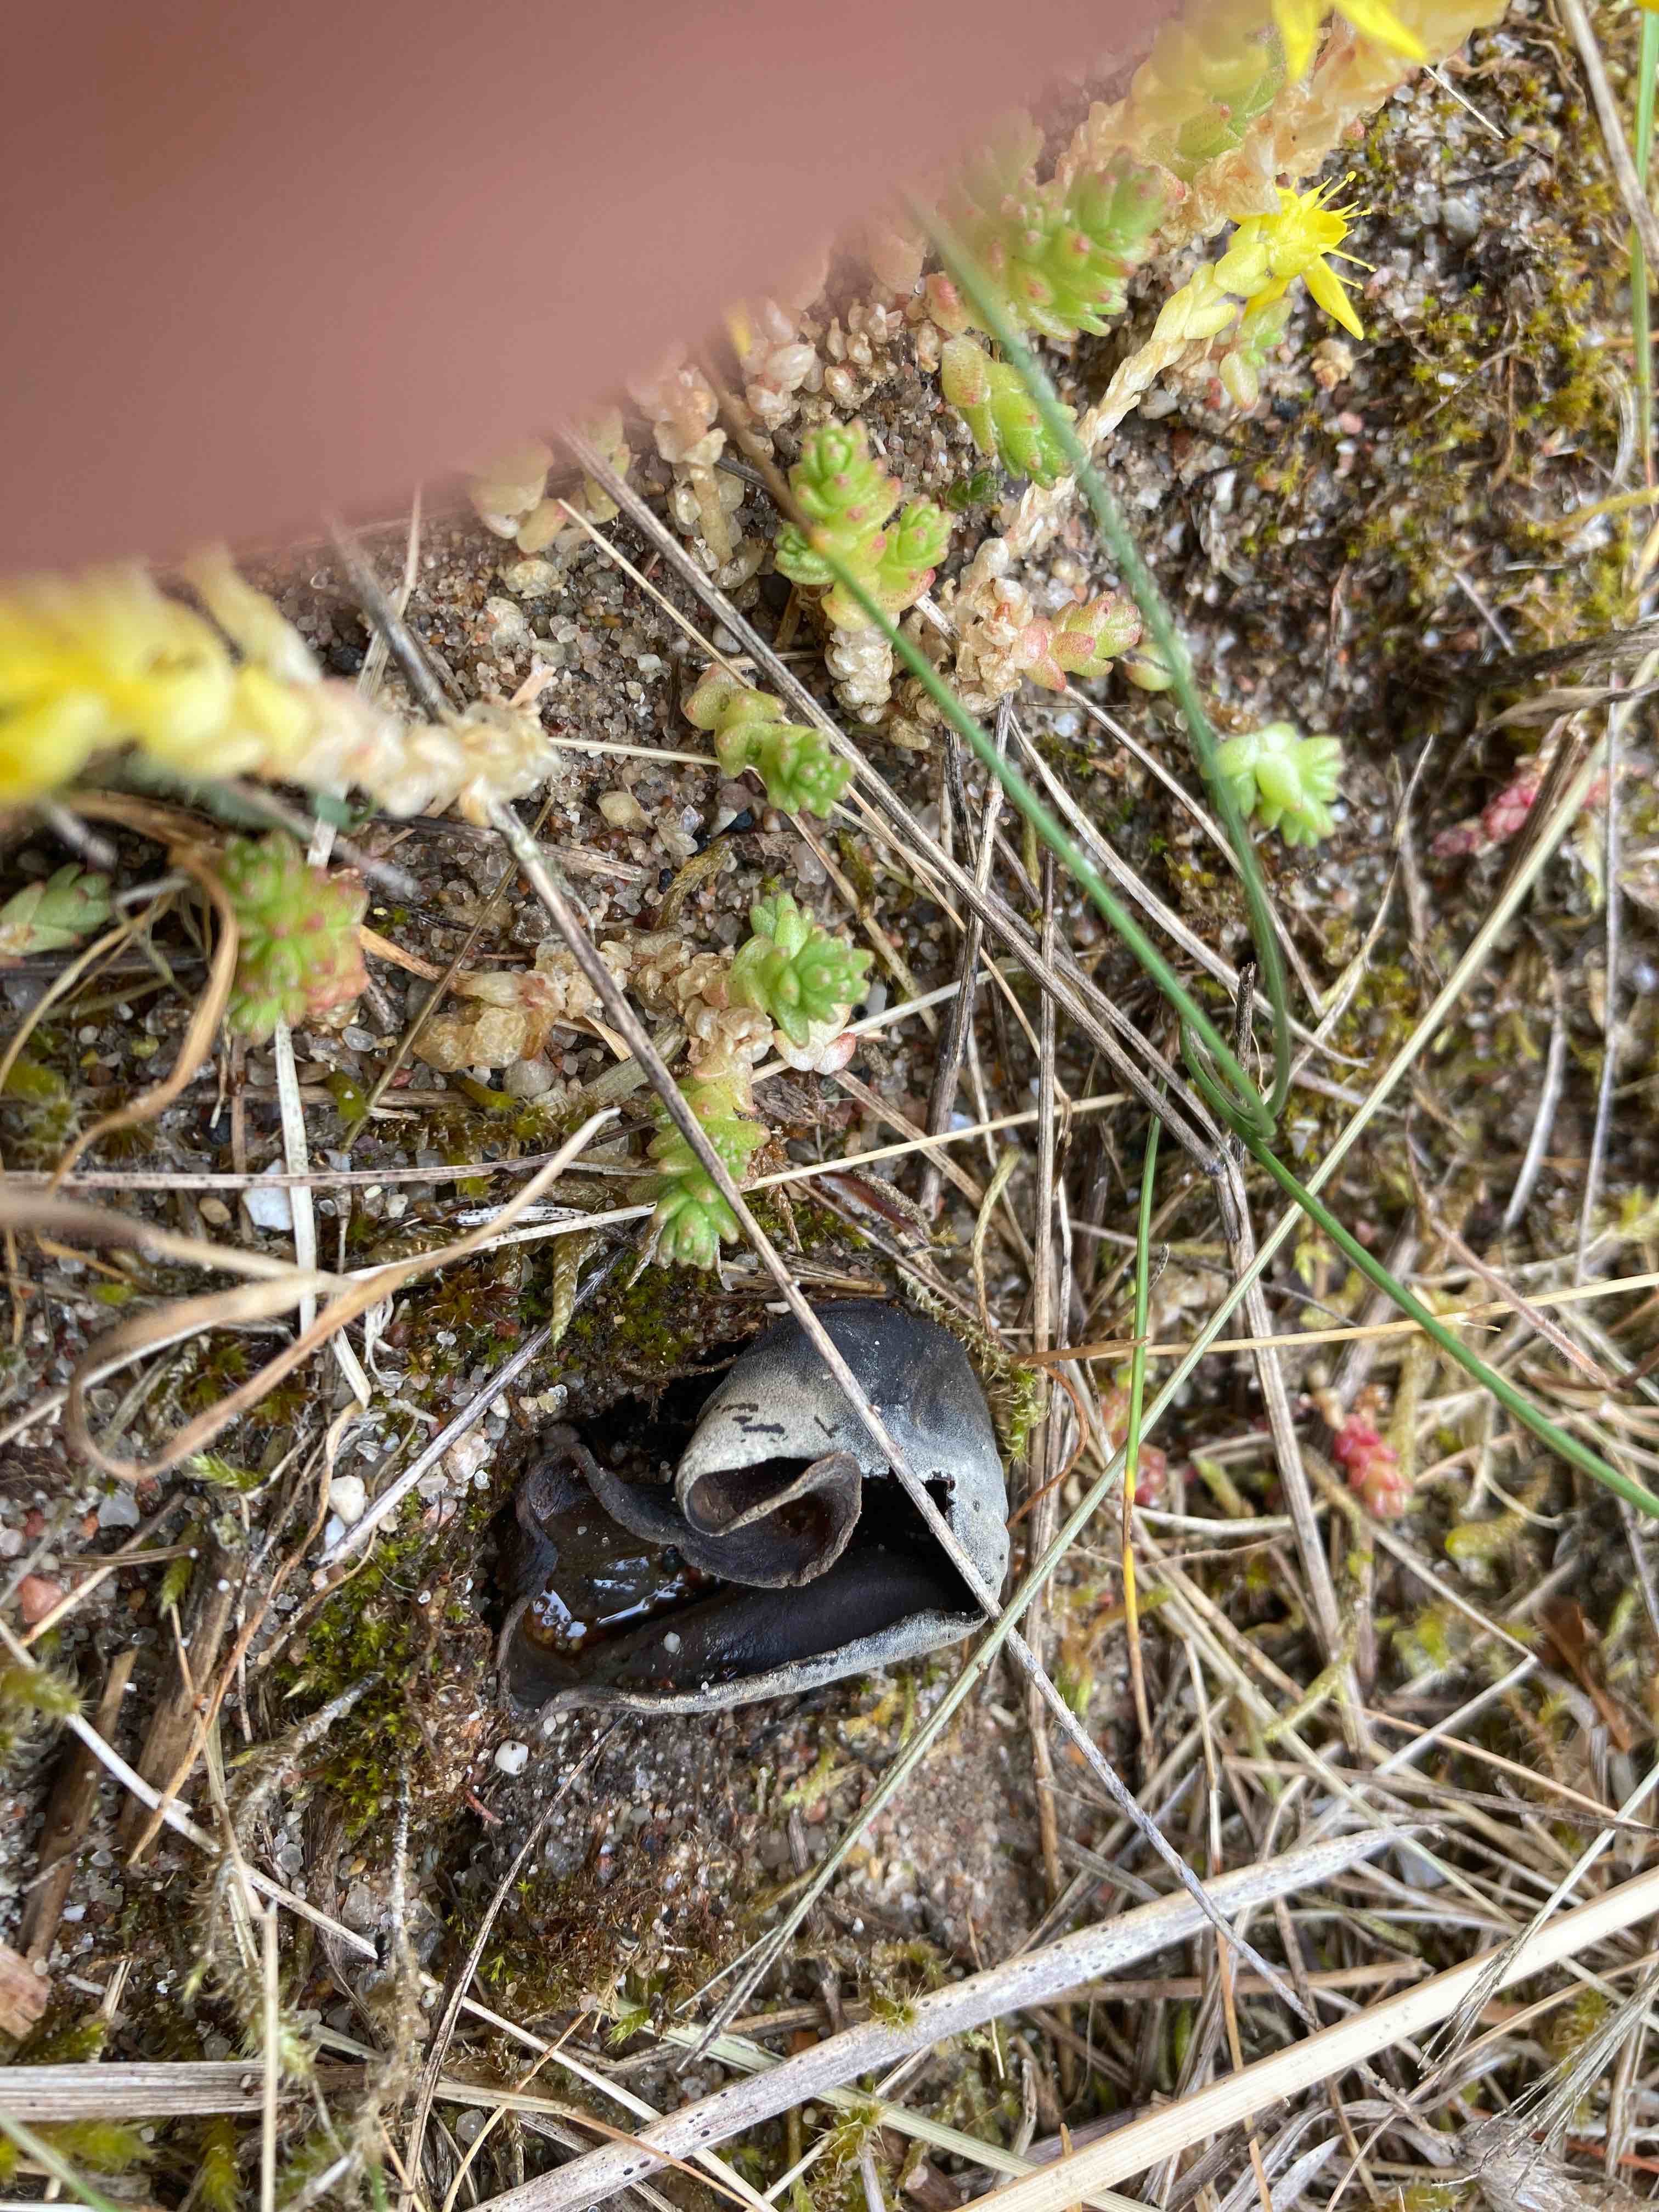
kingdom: Fungi
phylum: Ascomycota
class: Pezizomycetes
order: Pezizales
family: Helvellaceae
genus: Helvella
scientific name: Helvella solitaria
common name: Quélets foldhat
